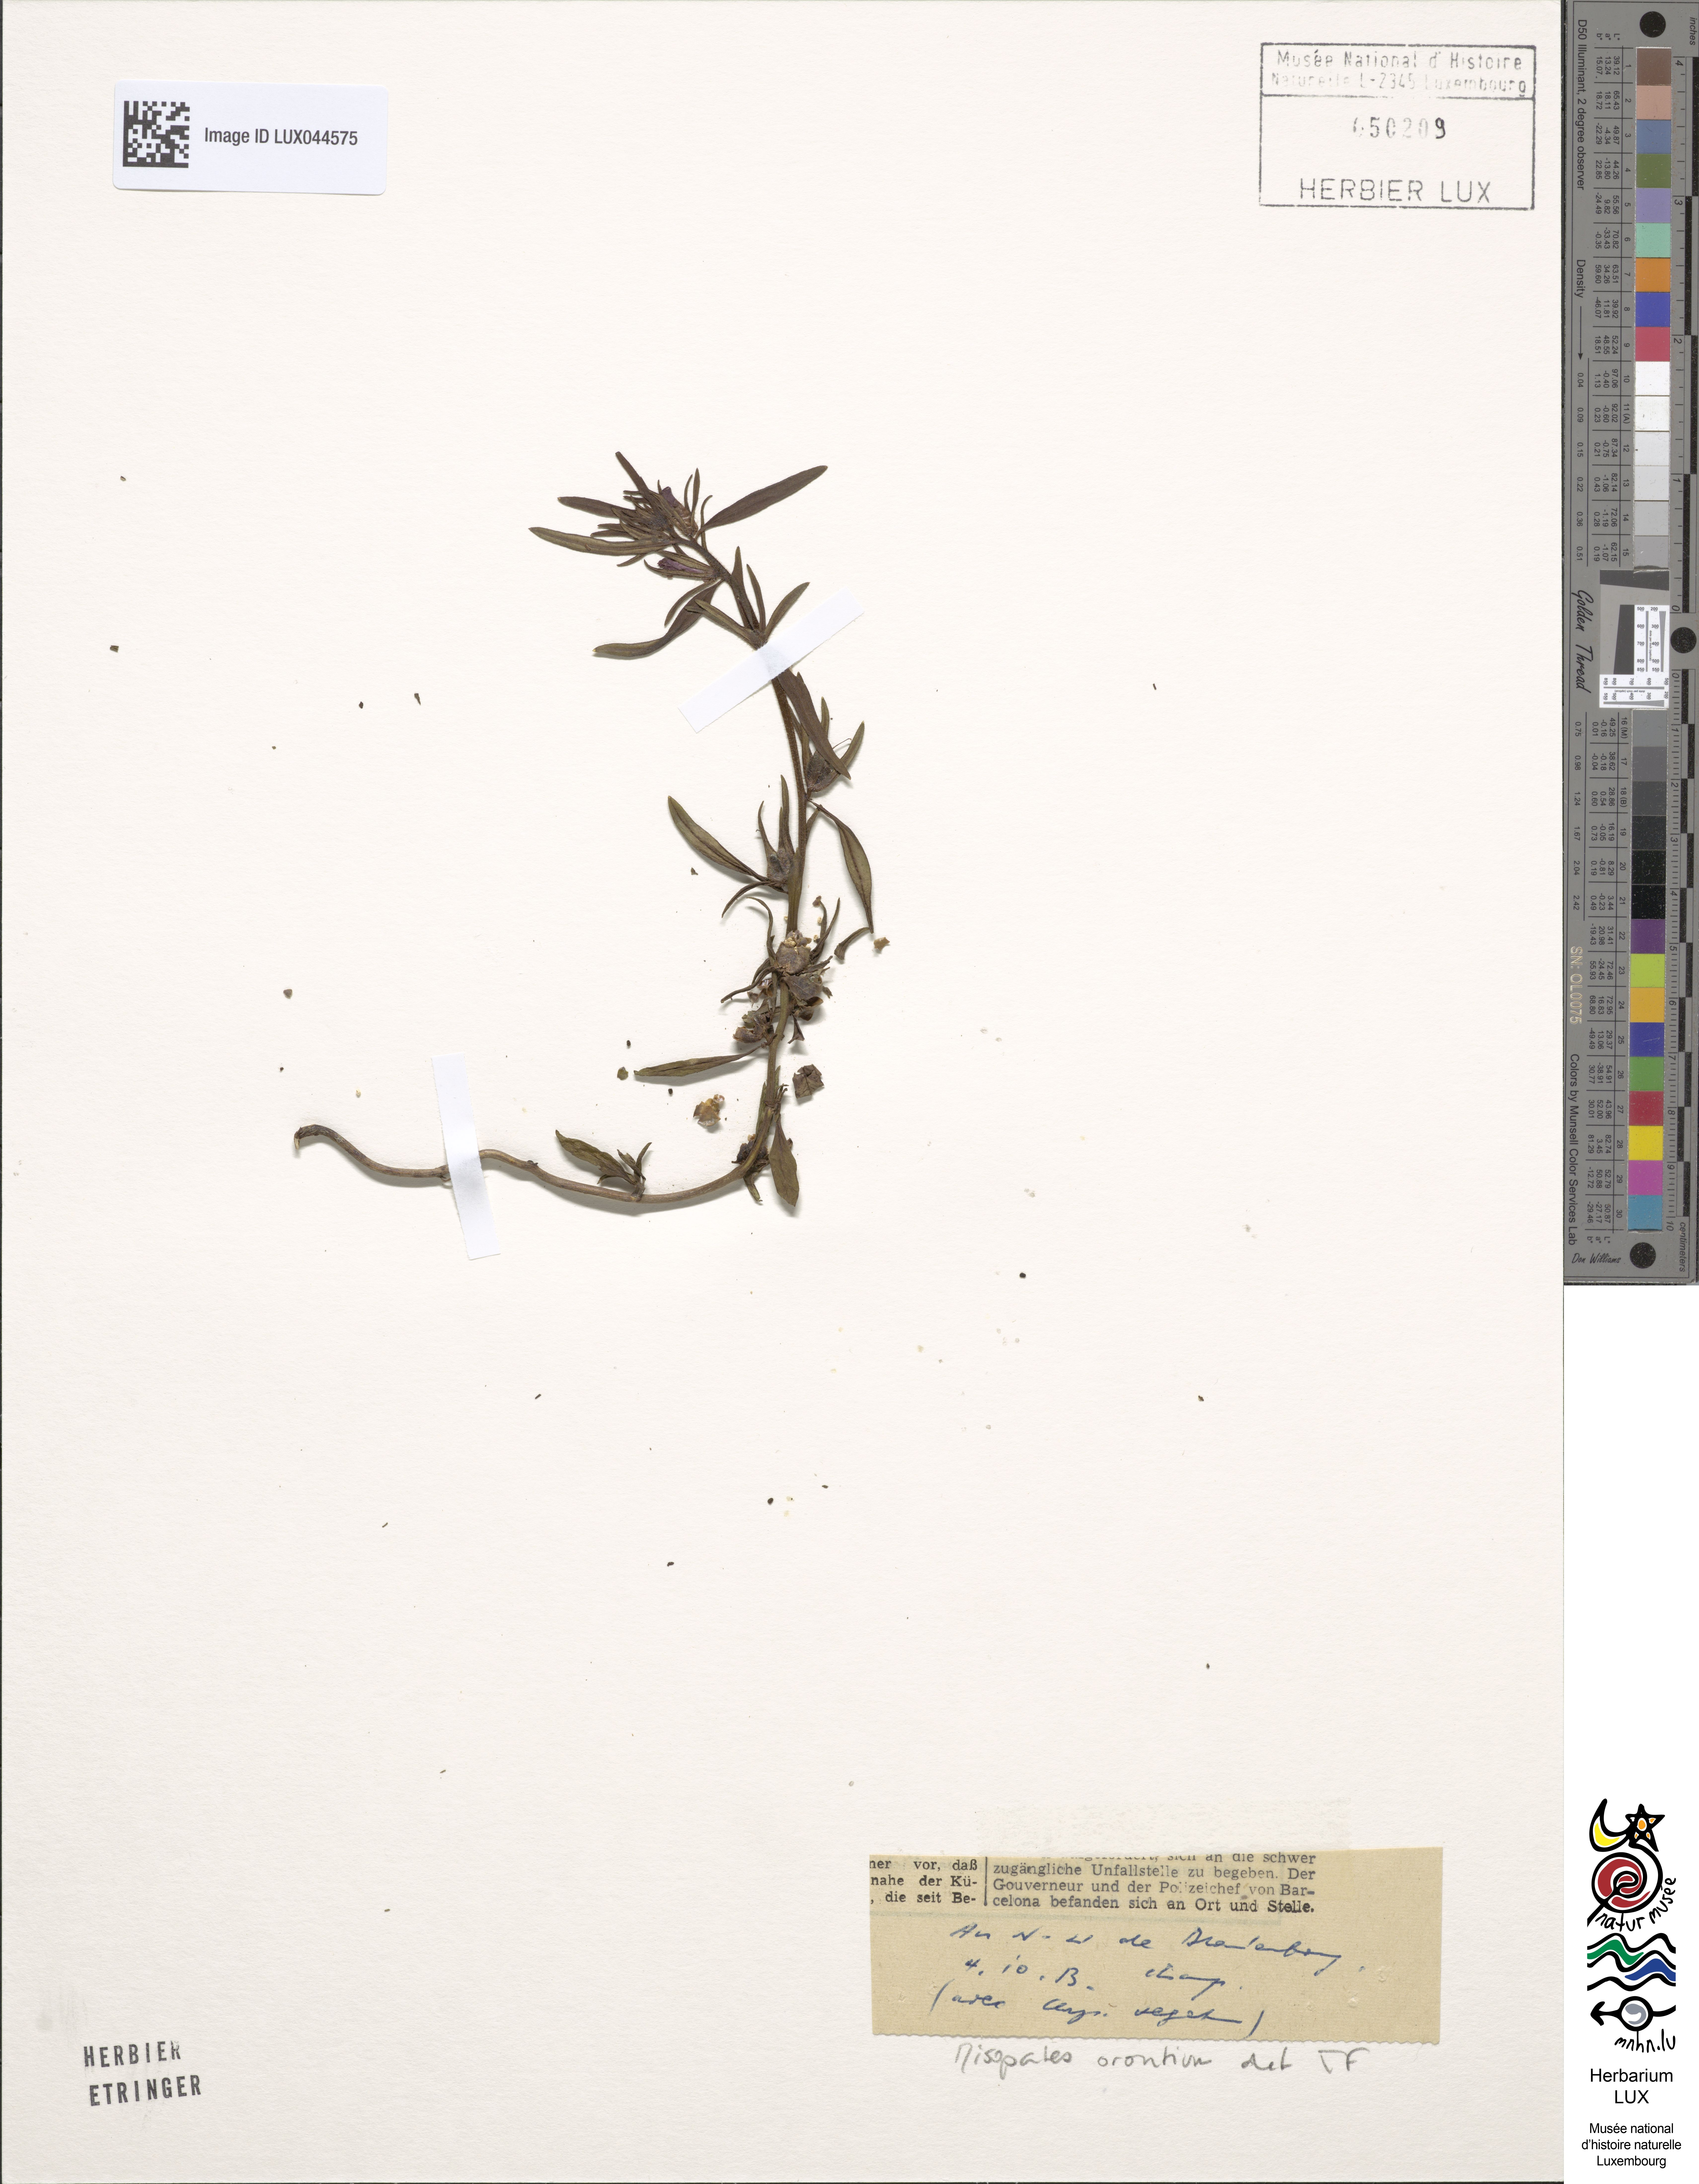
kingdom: Plantae
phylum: Tracheophyta
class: Magnoliopsida
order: Lamiales
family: Plantaginaceae
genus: Misopates
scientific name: Misopates orontium
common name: Weasel's-snout
